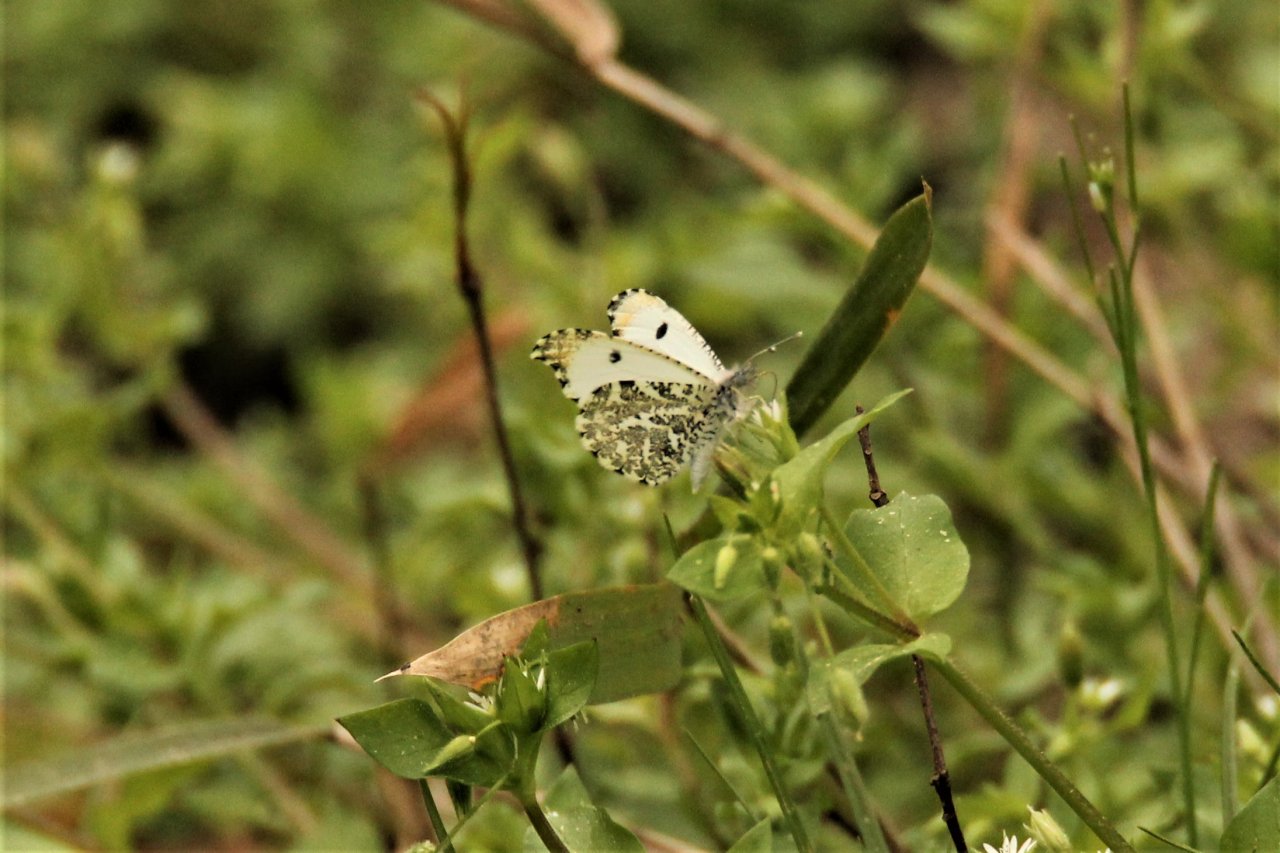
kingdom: Animalia
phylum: Arthropoda
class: Insecta
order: Lepidoptera
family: Pieridae
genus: Anthocharis
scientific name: Anthocharis midea
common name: Falcate Orangetip
